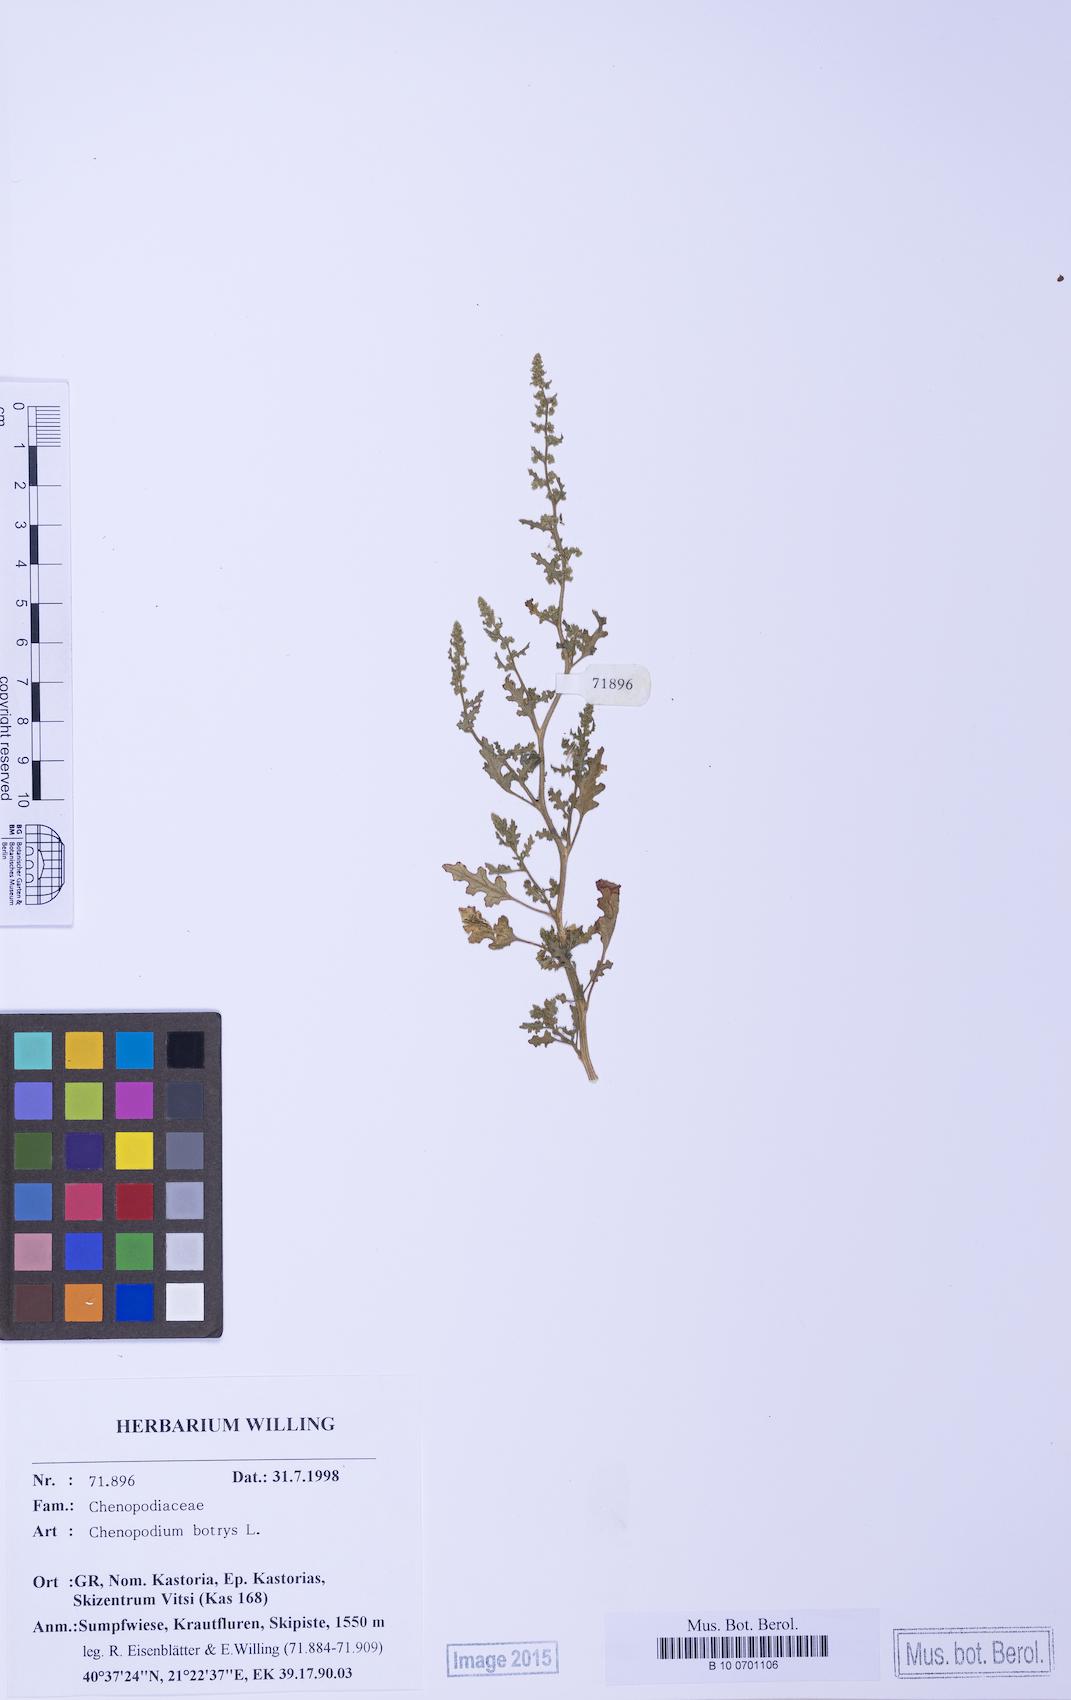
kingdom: Plantae
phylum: Tracheophyta
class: Magnoliopsida
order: Caryophyllales
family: Amaranthaceae
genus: Dysphania
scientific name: Dysphania botrys
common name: Feather-geranium
